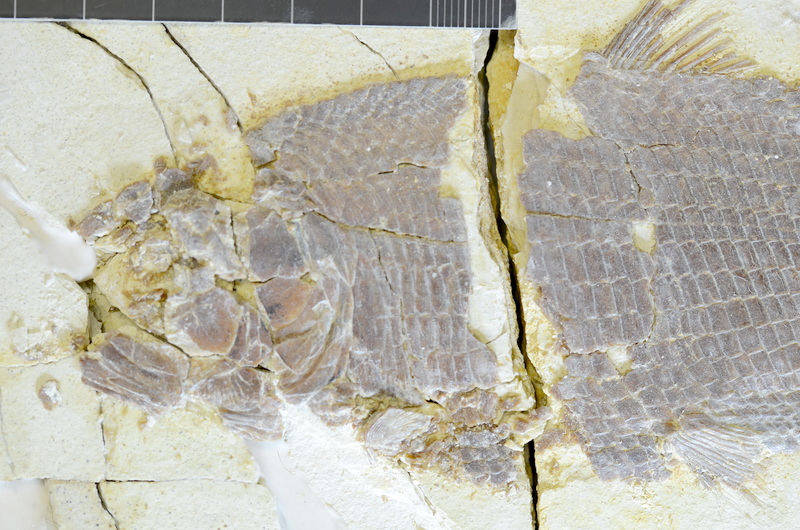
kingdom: Animalia
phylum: Chordata
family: Ankylophoridae
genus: Pholidophoristion
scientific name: Pholidophoristion ovatus
